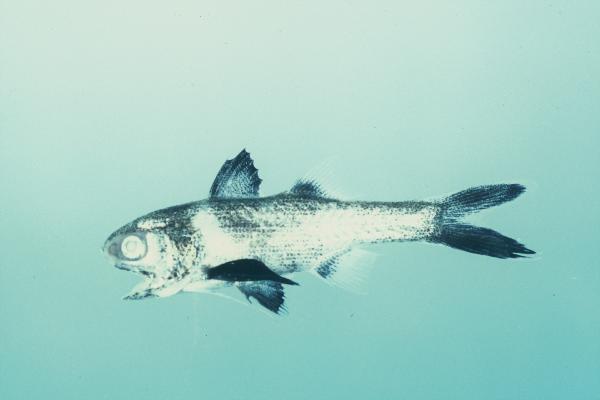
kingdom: Animalia
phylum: Chordata
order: Perciformes
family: Polynemidae
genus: Polydactylus
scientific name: Polydactylus plebeius
